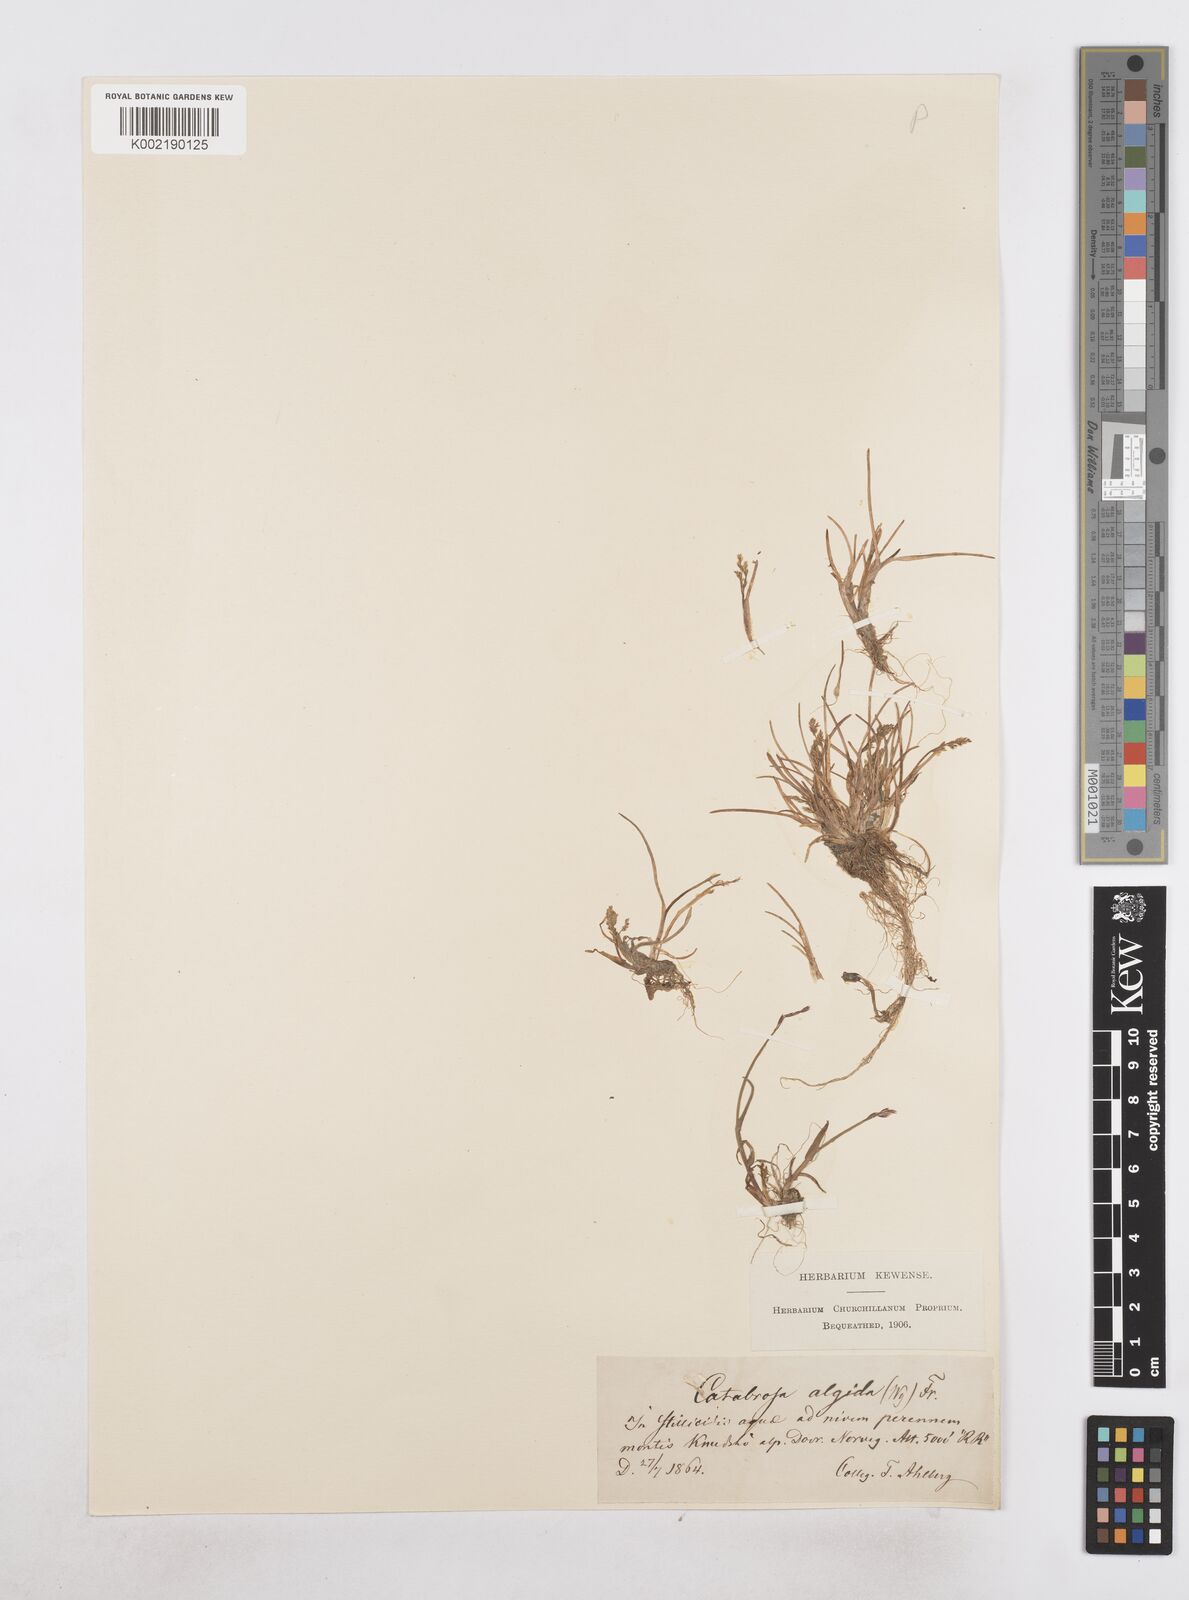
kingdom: Plantae
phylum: Tracheophyta
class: Liliopsida
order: Poales
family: Poaceae
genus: Phippsia
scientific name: Phippsia algida
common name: Ice grass
